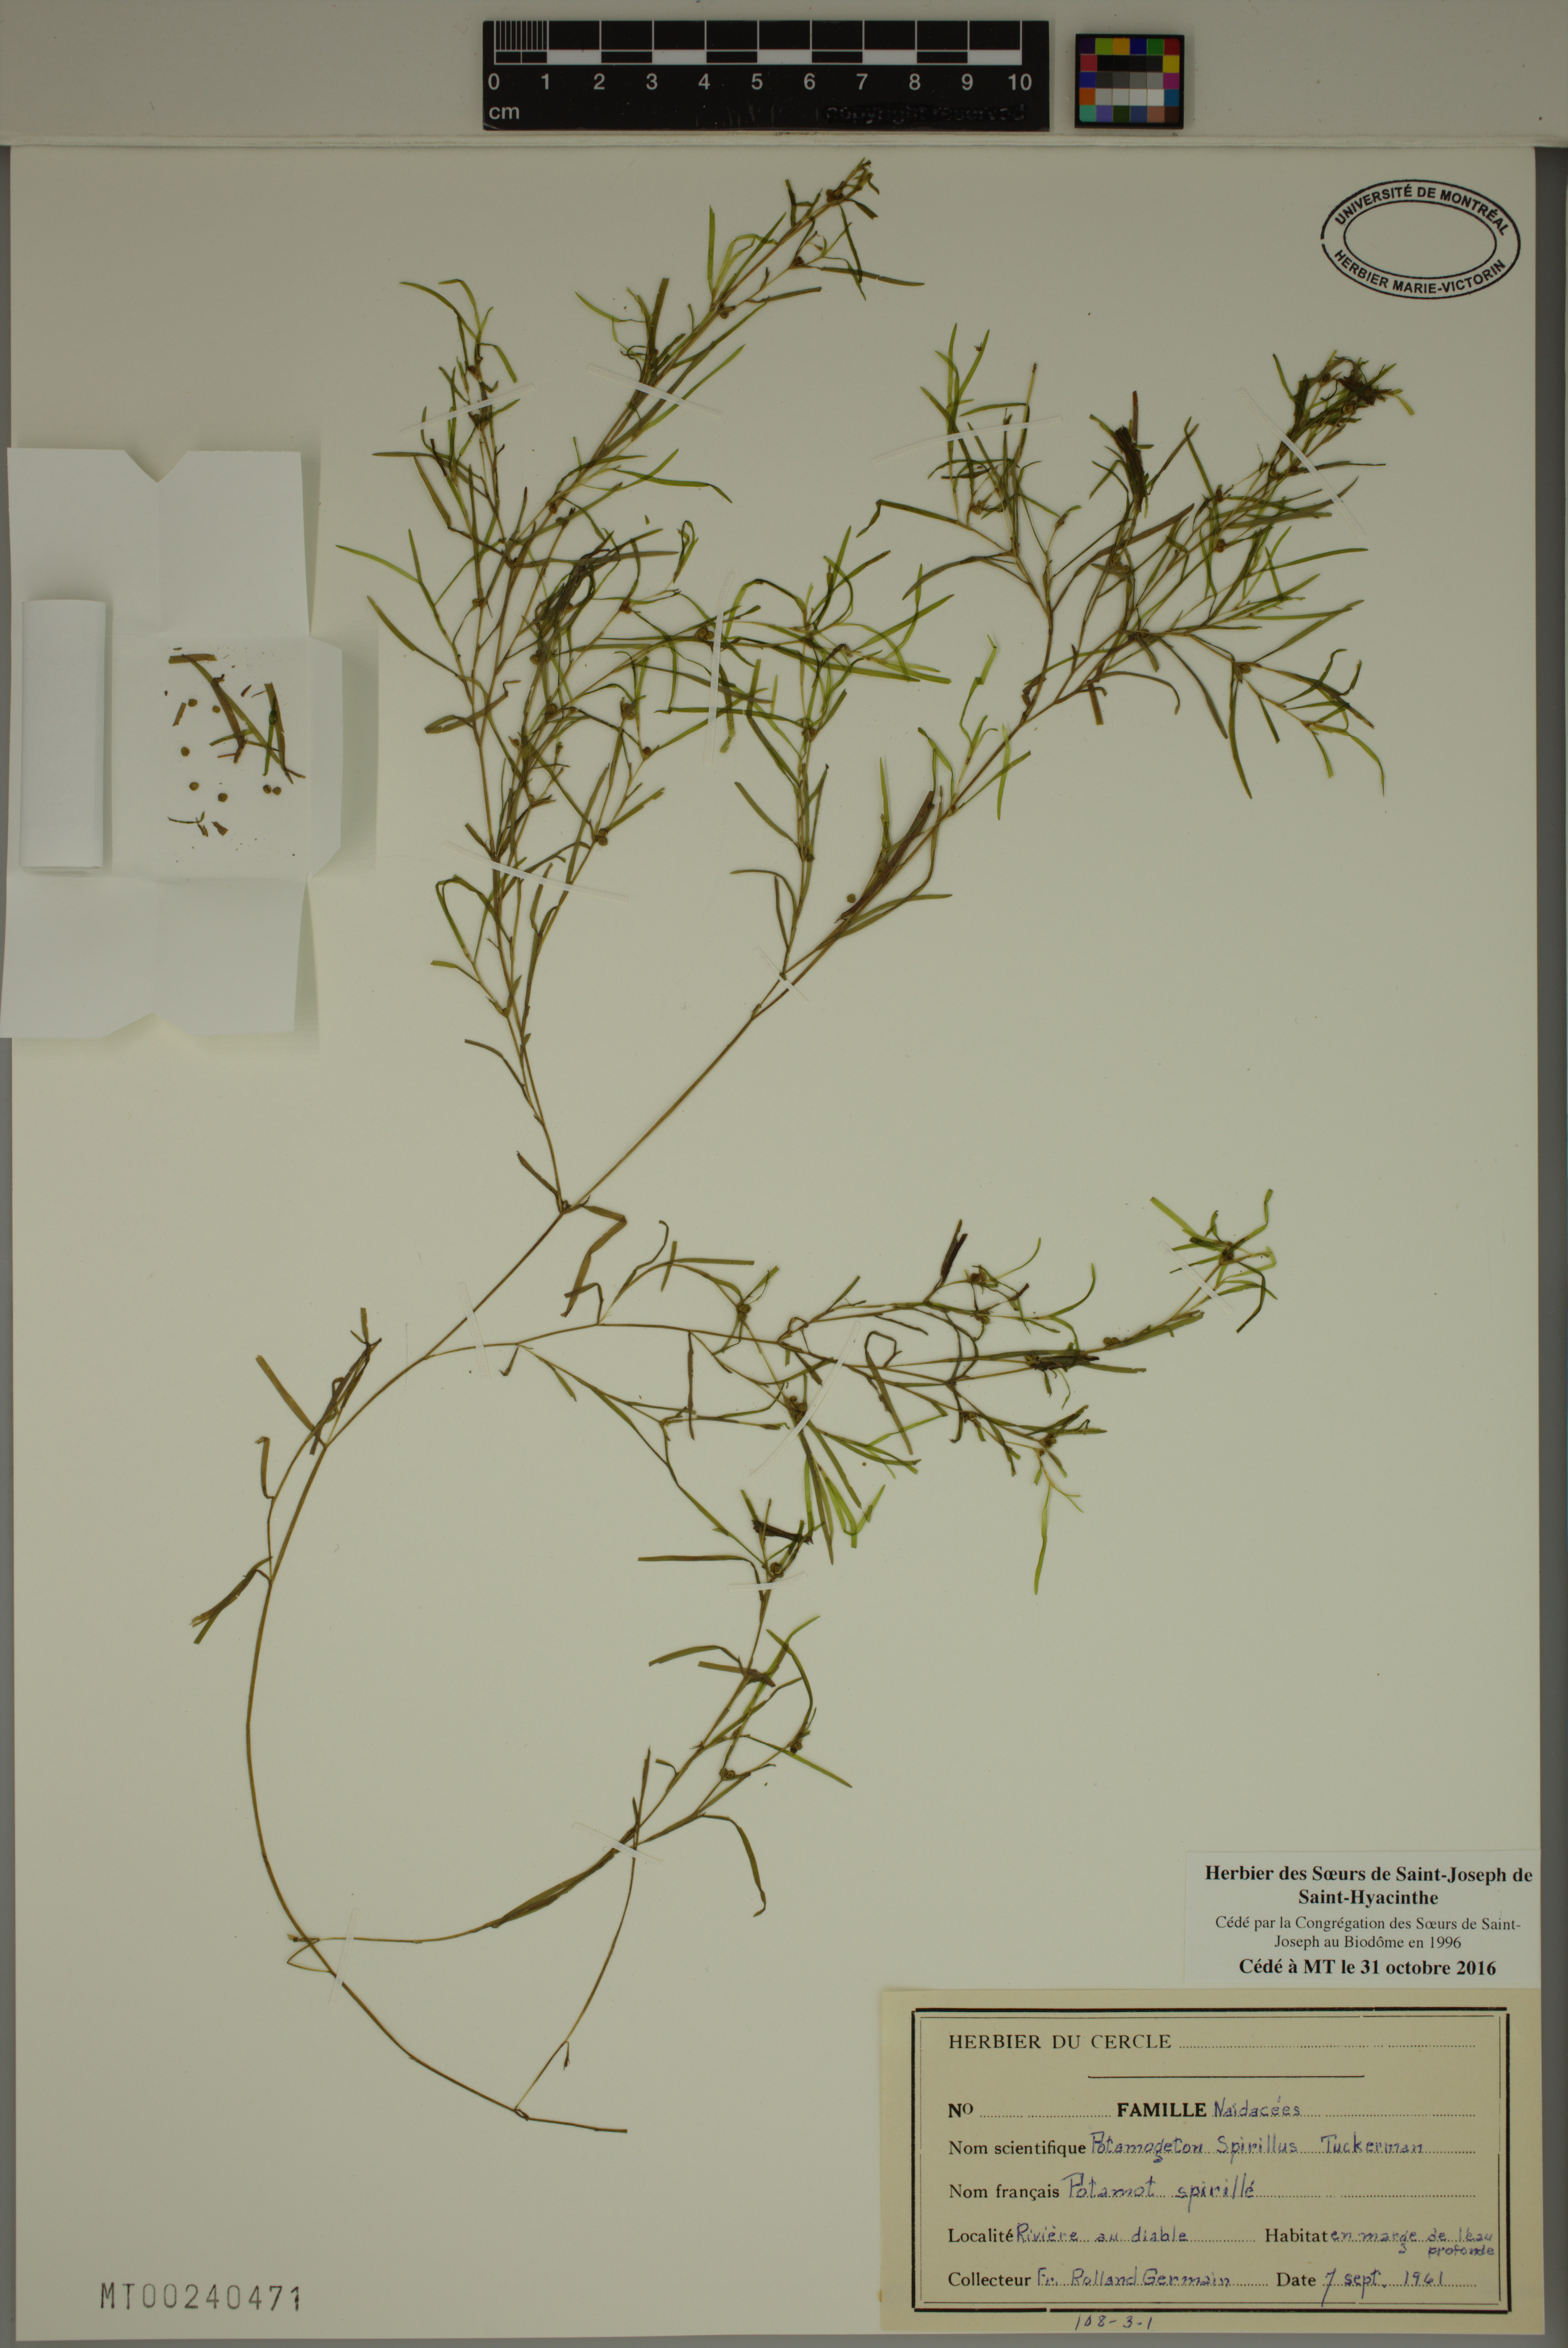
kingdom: Plantae
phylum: Tracheophyta
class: Liliopsida
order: Alismatales
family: Potamogetonaceae
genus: Potamogeton
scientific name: Potamogeton spirillus
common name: Northern snail-seed pondweed
